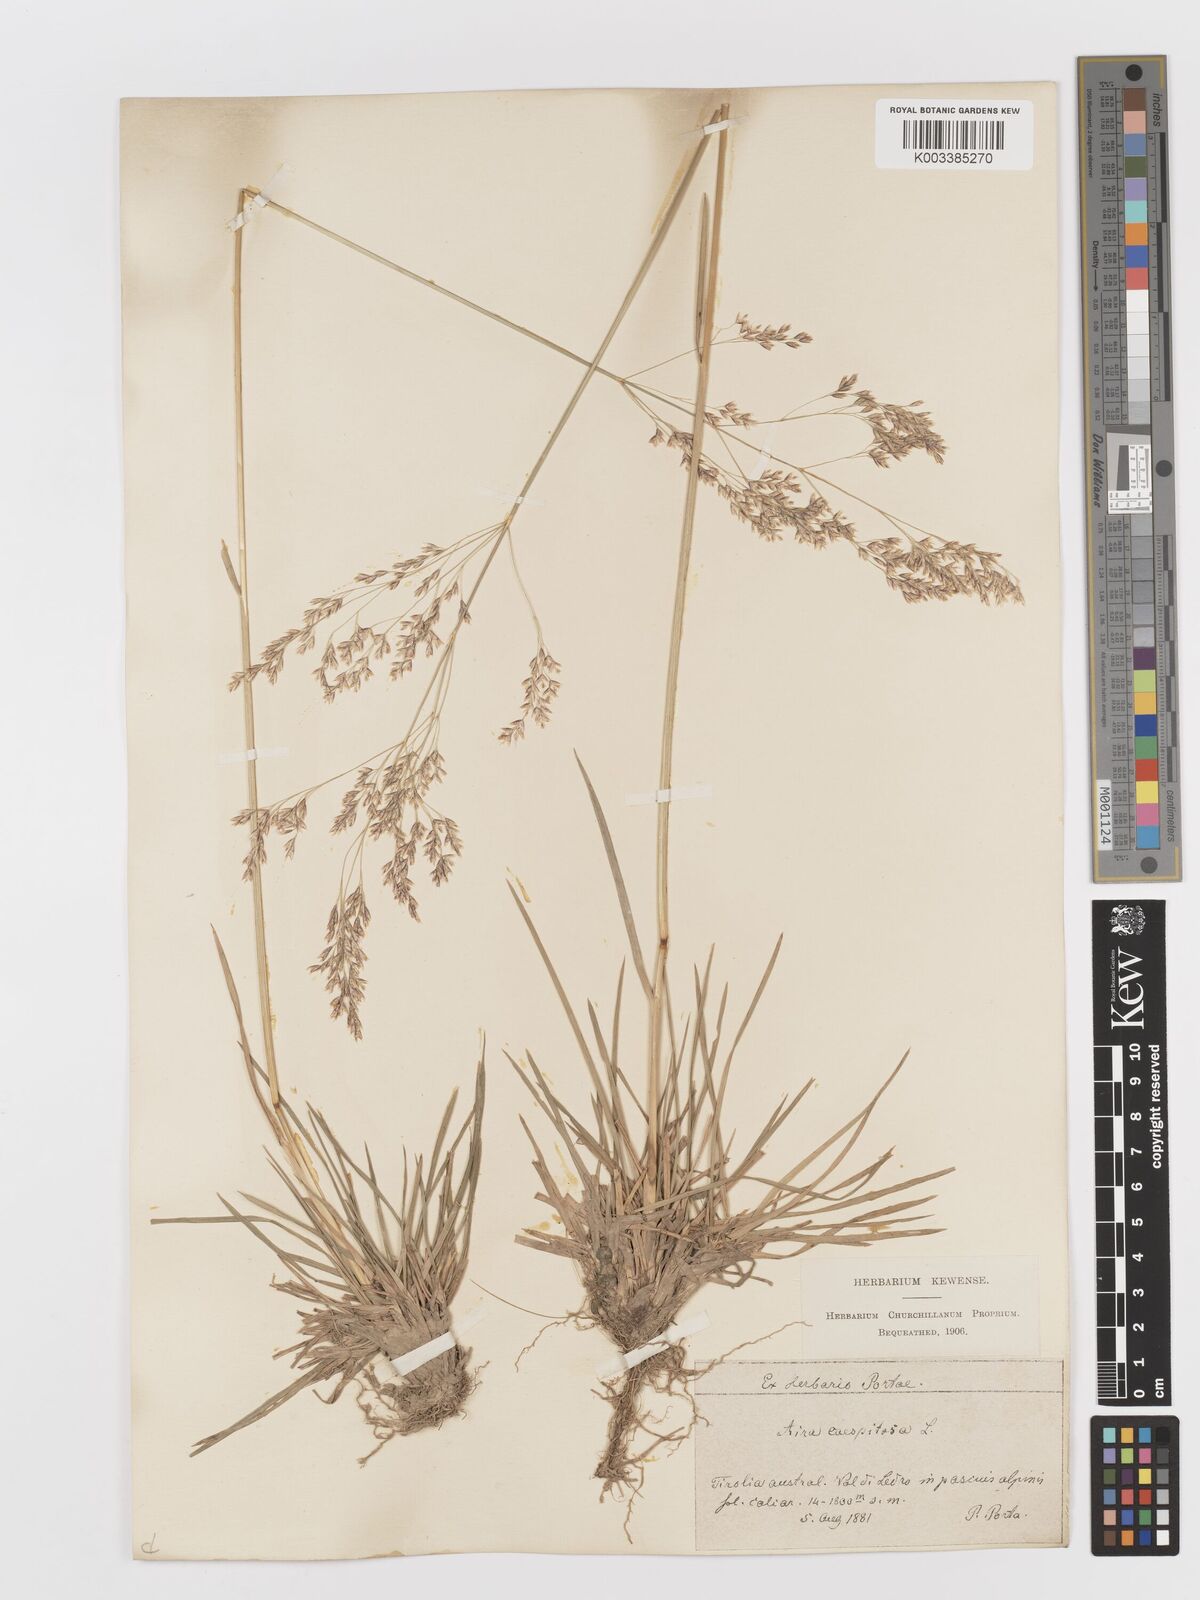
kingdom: Plantae
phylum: Tracheophyta
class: Liliopsida
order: Poales
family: Poaceae
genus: Deschampsia
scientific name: Deschampsia cespitosa
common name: Tufted hair-grass
